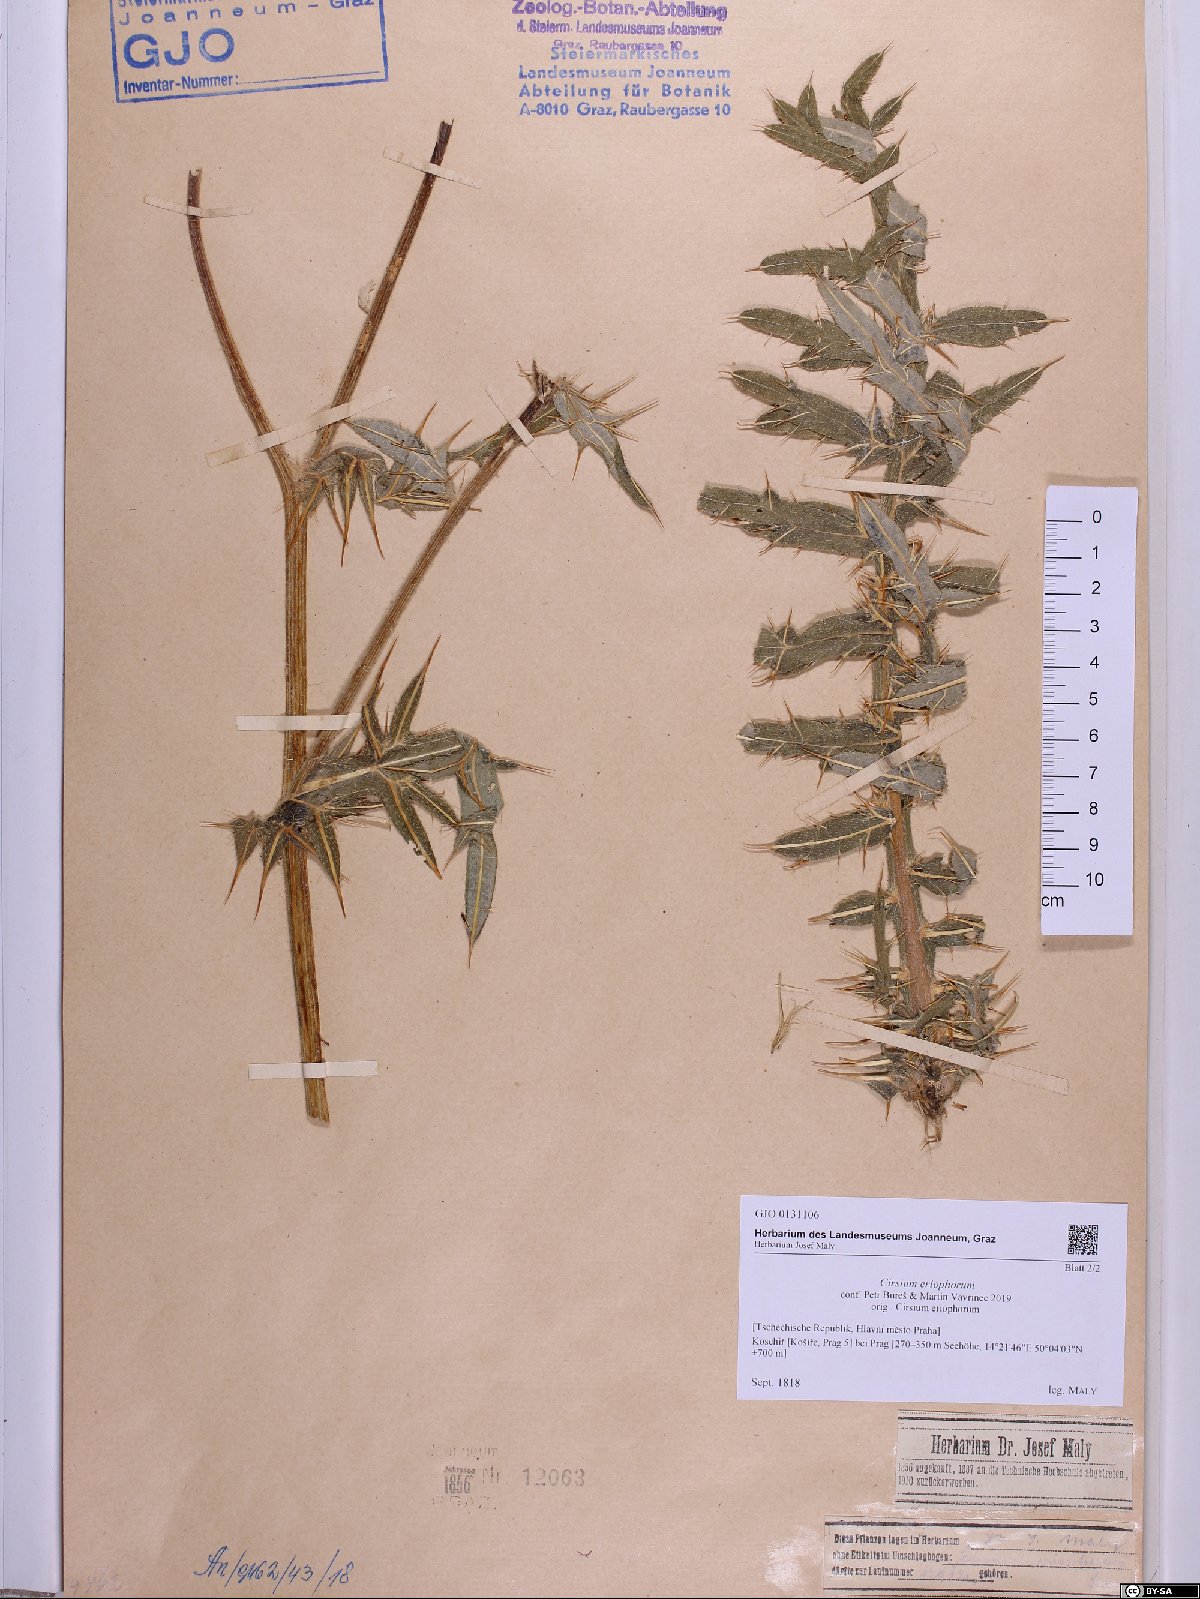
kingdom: Plantae
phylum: Tracheophyta
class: Magnoliopsida
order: Asterales
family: Asteraceae
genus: Lophiolepis
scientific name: Lophiolepis eriophora
